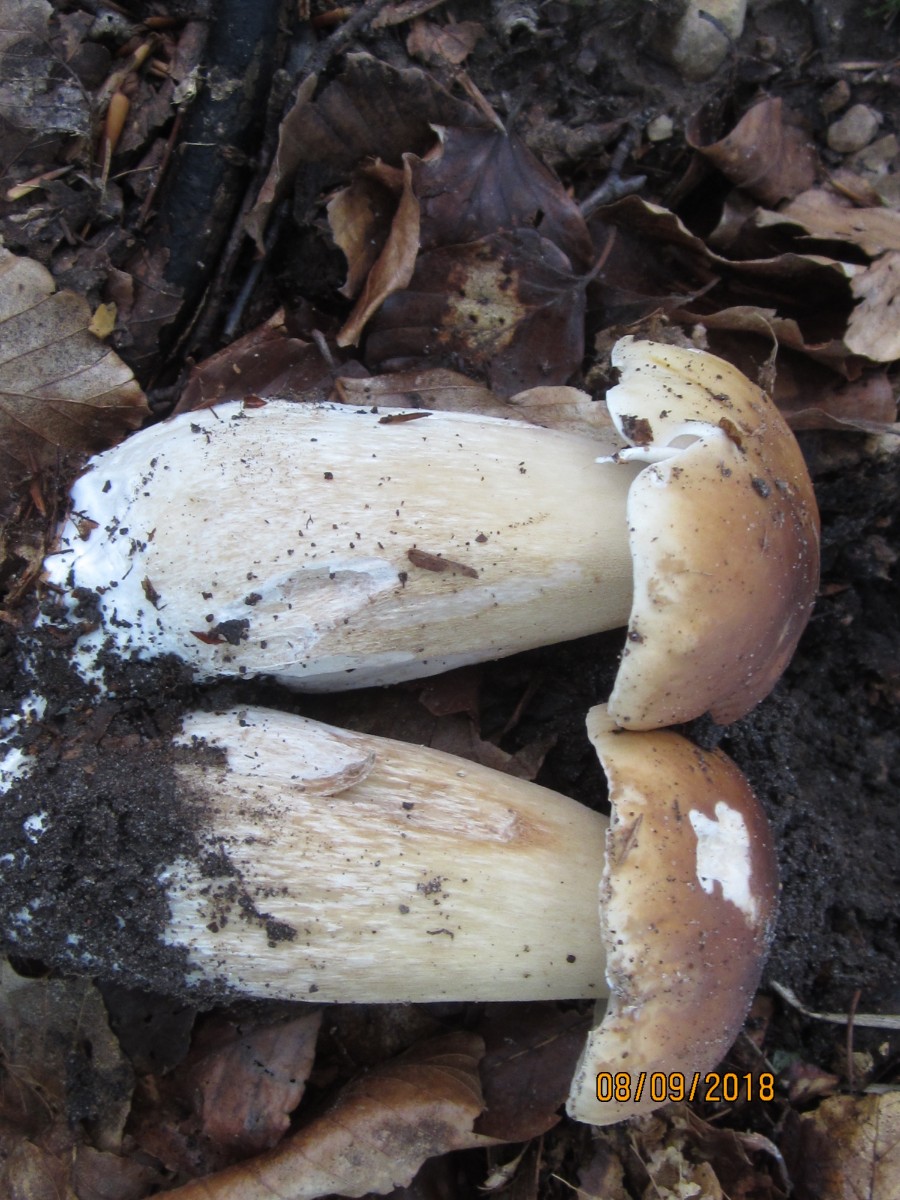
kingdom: Fungi
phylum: Basidiomycota
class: Agaricomycetes
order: Boletales
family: Boletaceae
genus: Boletus
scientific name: Boletus edulis
